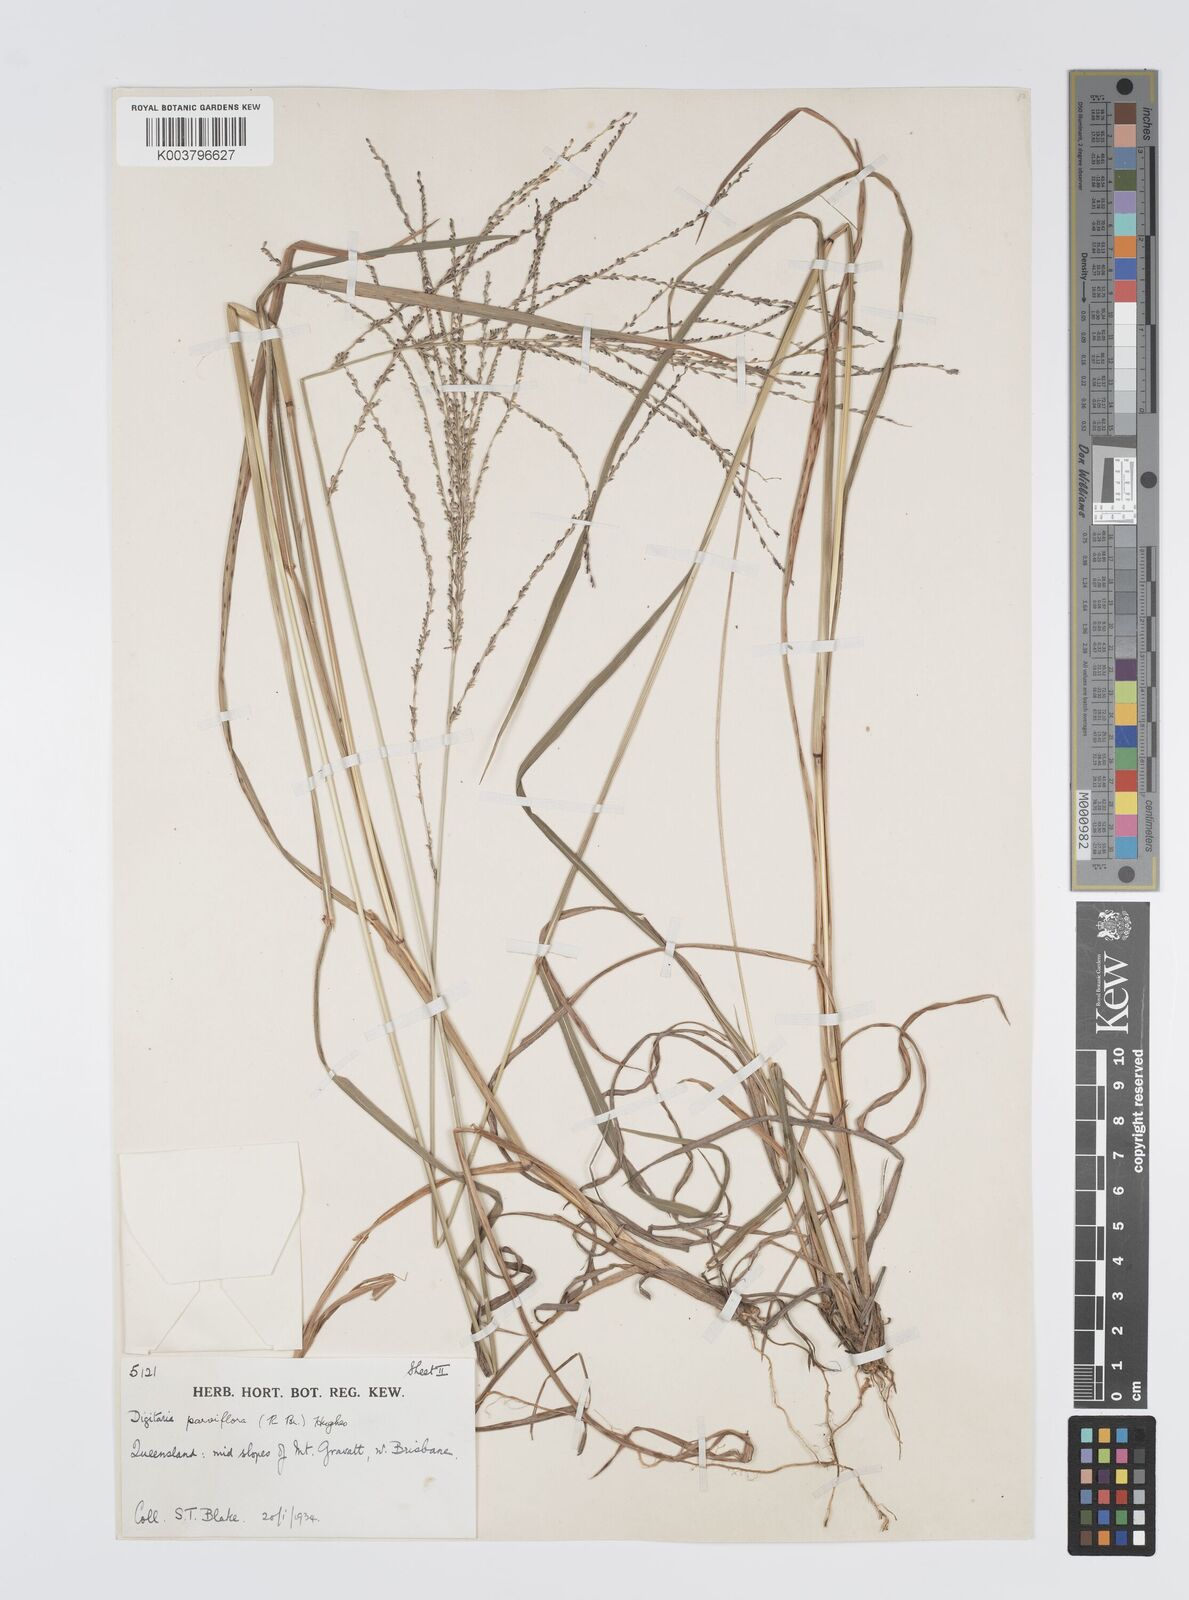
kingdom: Plantae
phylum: Tracheophyta
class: Liliopsida
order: Poales
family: Poaceae
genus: Digitaria
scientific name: Digitaria parviflora
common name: Small-flower finger grass
